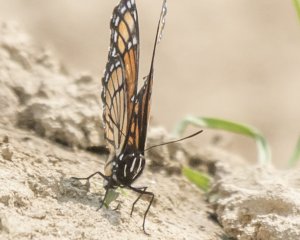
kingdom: Animalia
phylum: Arthropoda
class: Insecta
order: Lepidoptera
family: Nymphalidae
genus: Limenitis
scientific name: Limenitis archippus
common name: Viceroy
